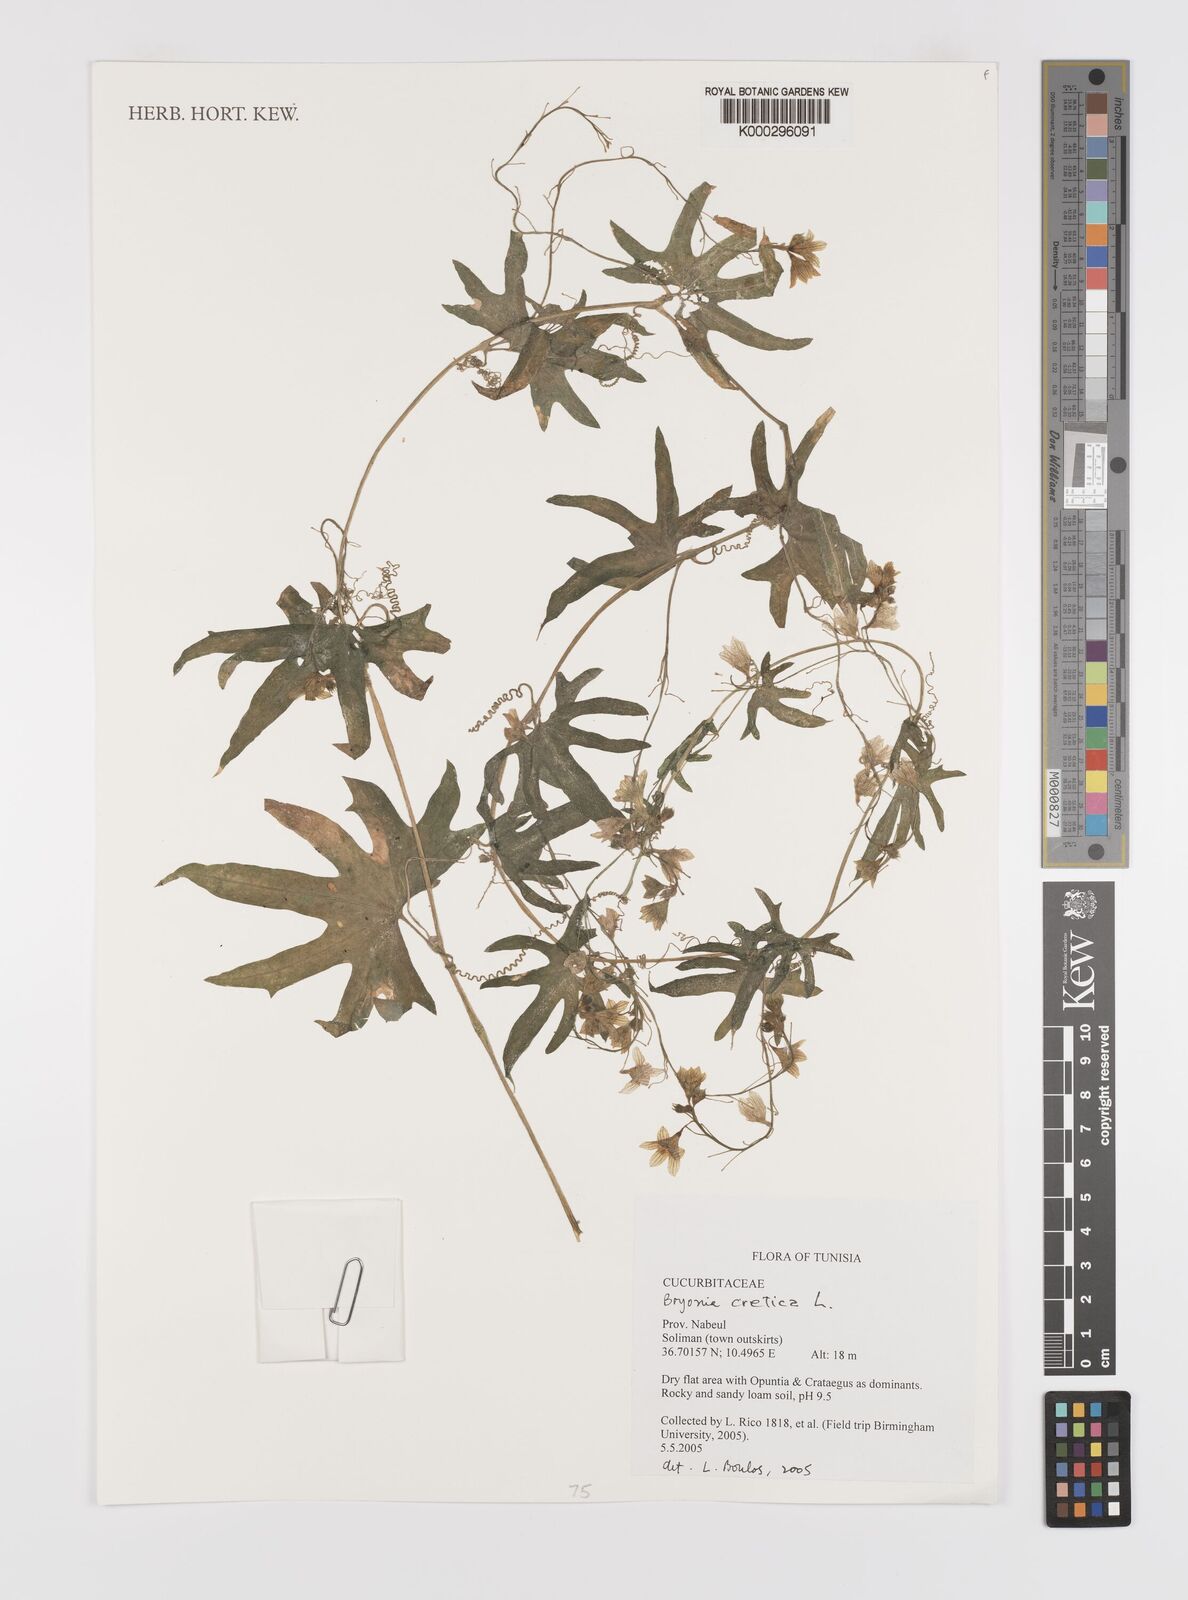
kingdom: Plantae
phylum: Tracheophyta
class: Magnoliopsida
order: Cucurbitales
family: Cucurbitaceae
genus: Bryonia
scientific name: Bryonia cretica
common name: Cretan bryony
